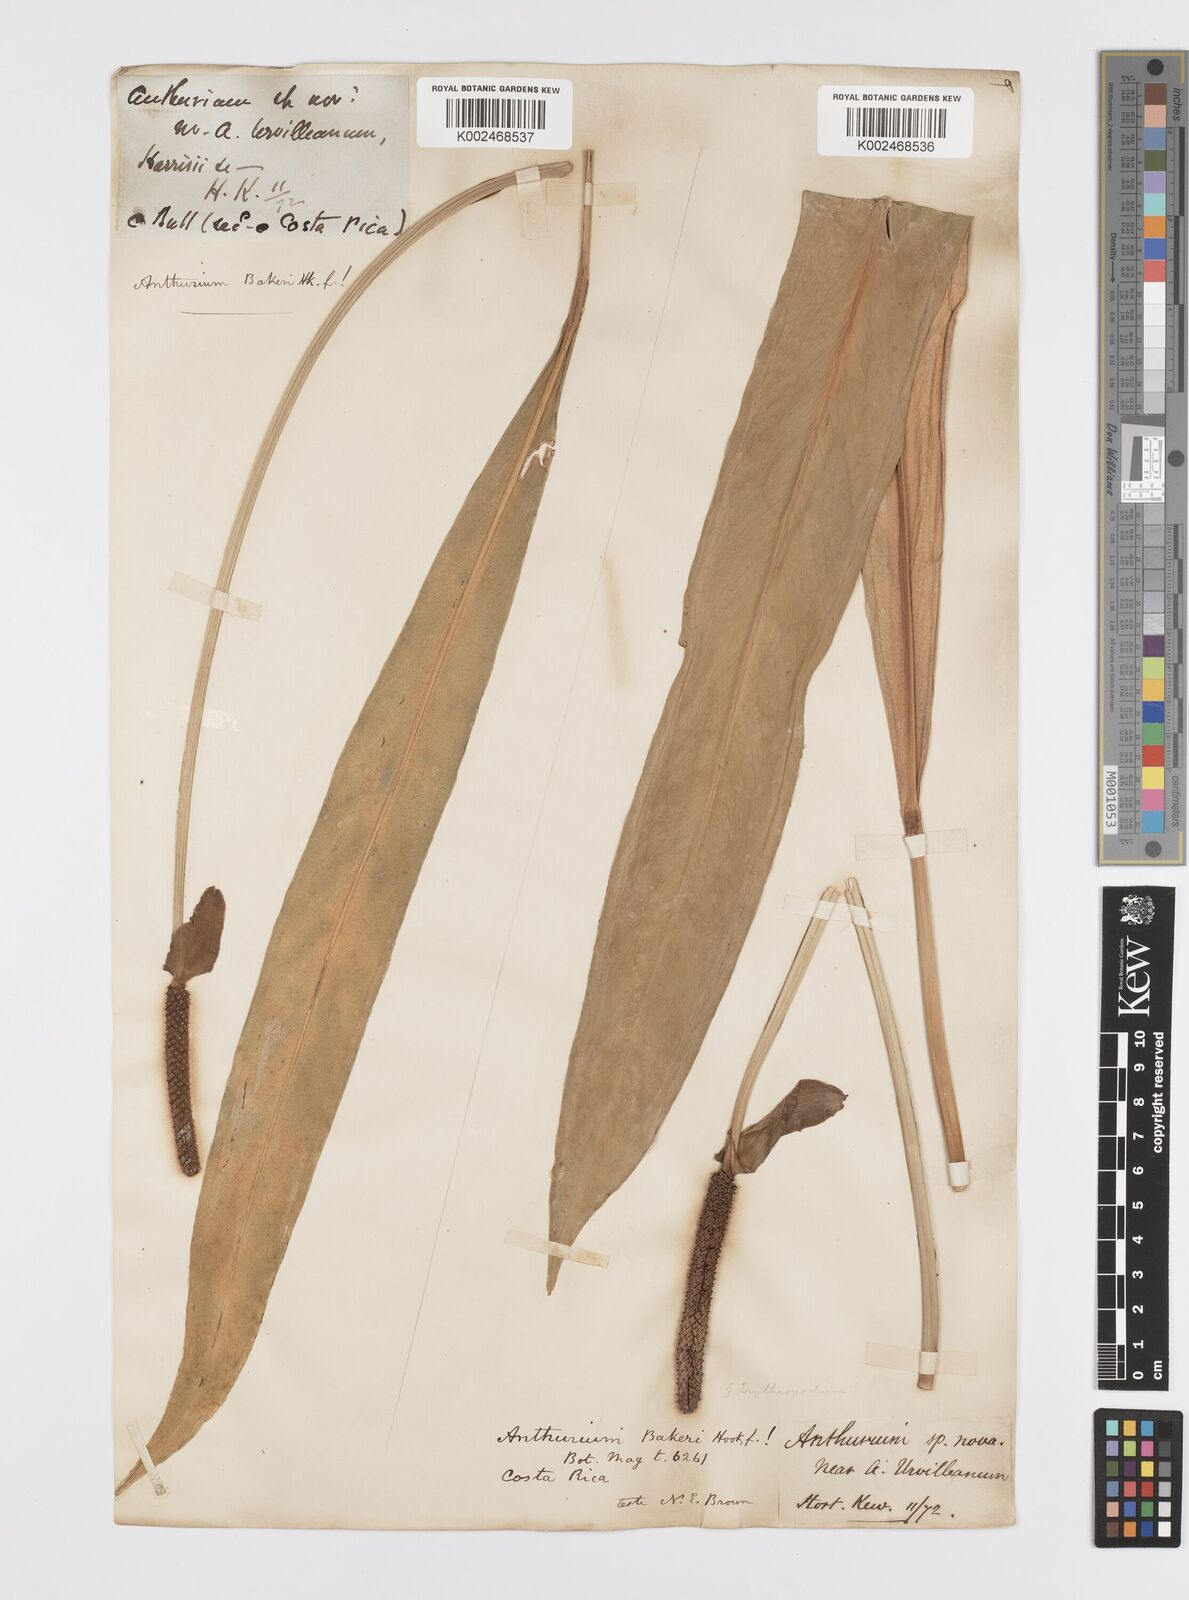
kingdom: Plantae
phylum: Tracheophyta
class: Liliopsida
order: Alismatales
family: Araceae
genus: Anthurium
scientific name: Anthurium bakeri
